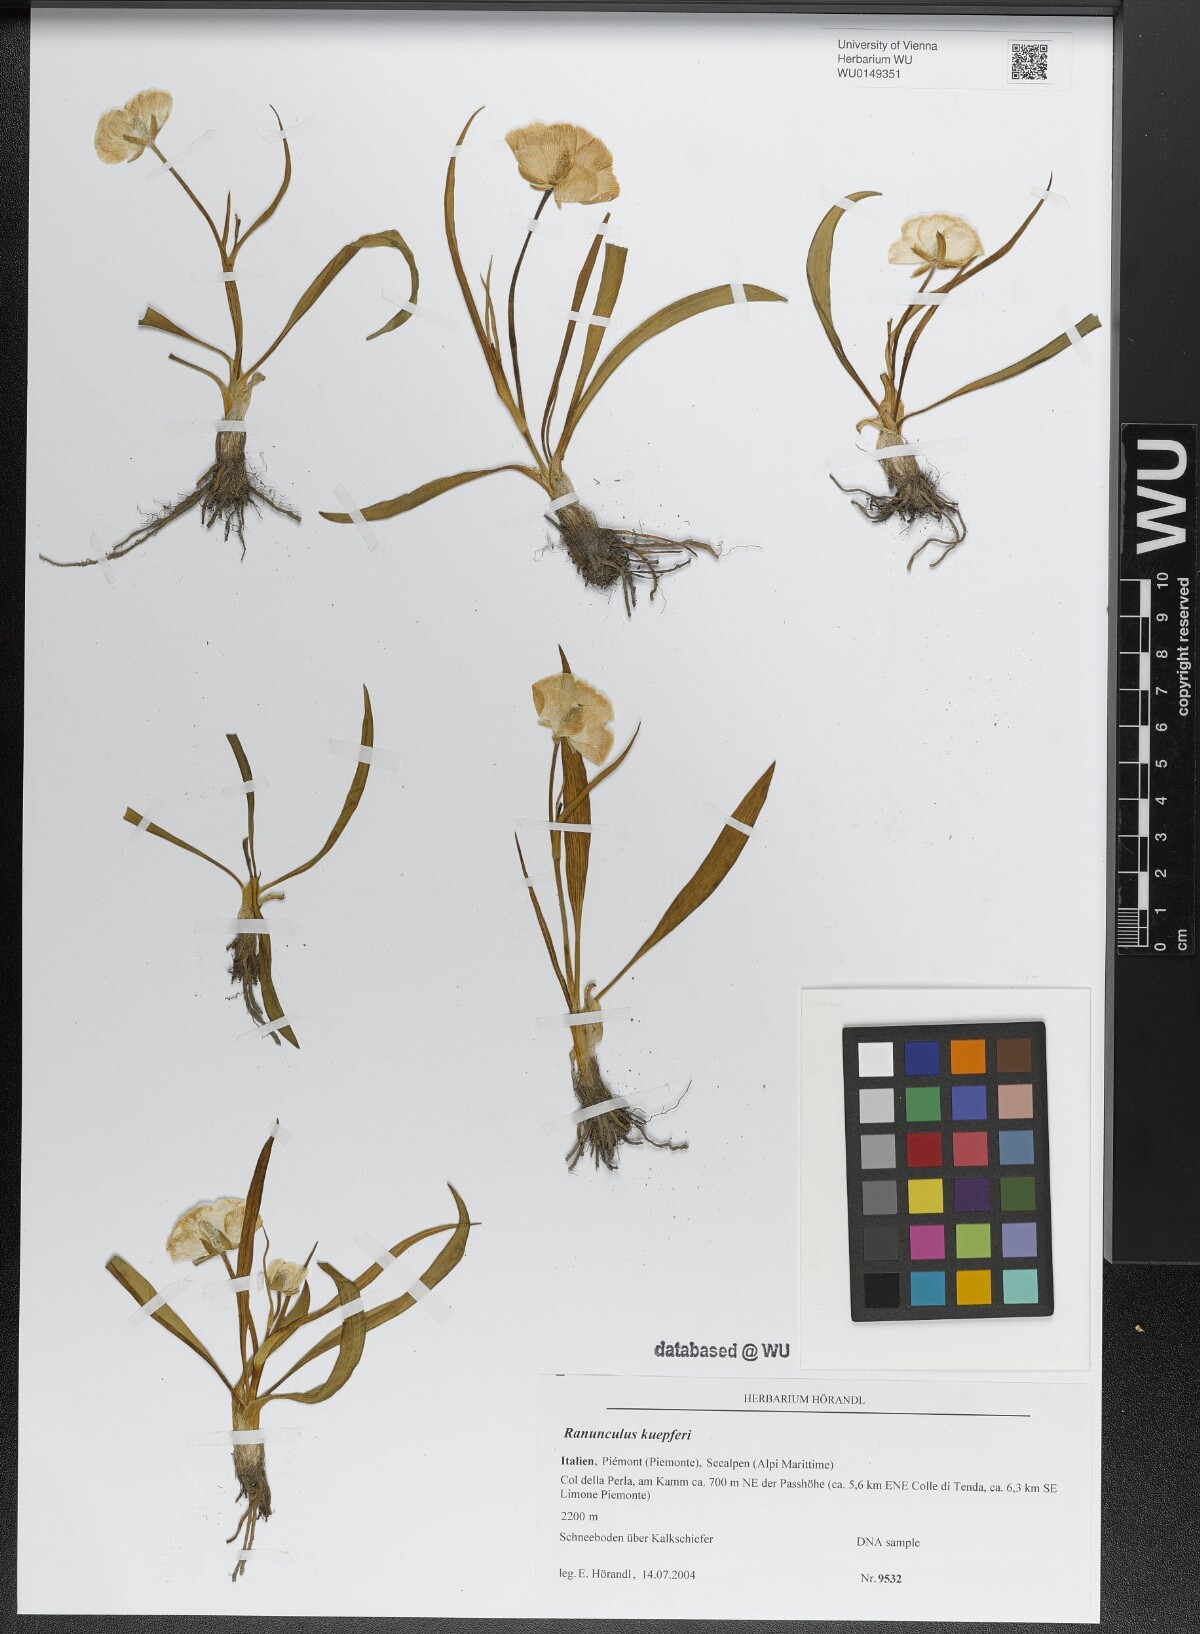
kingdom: Plantae
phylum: Tracheophyta
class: Magnoliopsida
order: Ranunculales
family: Ranunculaceae
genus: Ranunculus
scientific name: Ranunculus kuepferi
